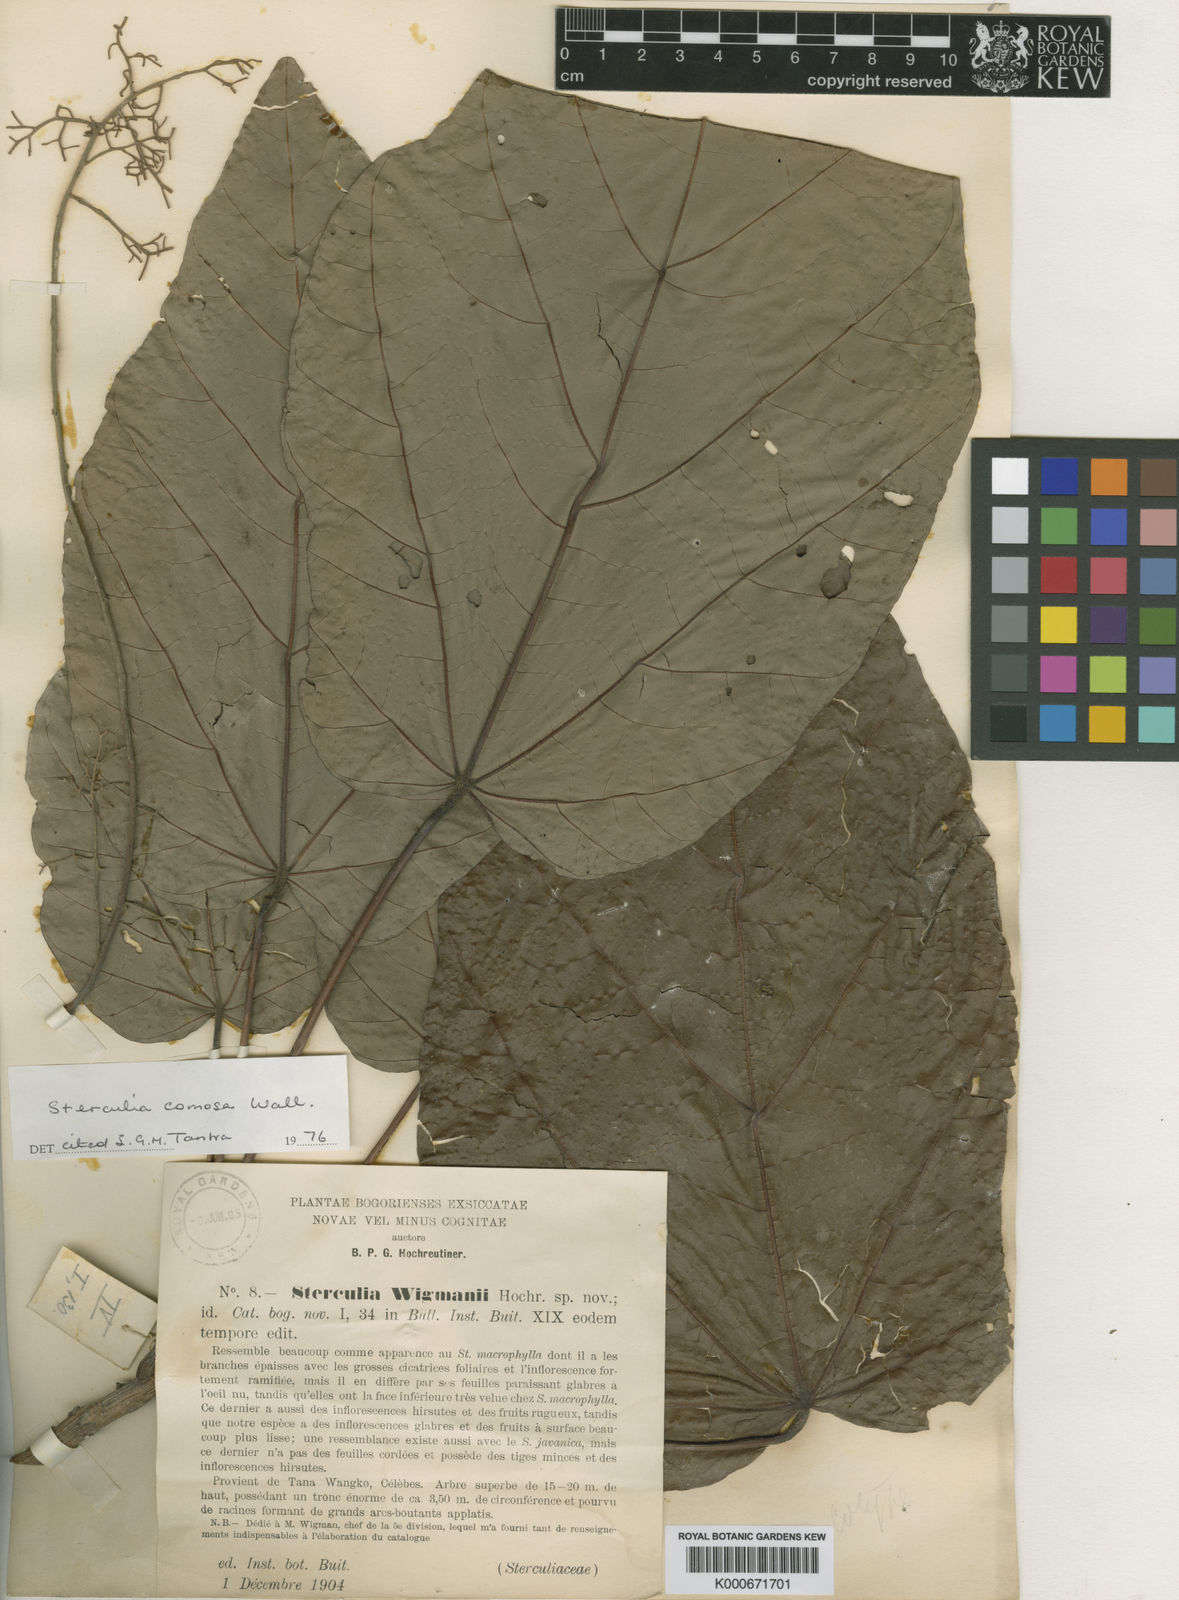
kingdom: Plantae
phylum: Tracheophyta
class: Magnoliopsida
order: Malvales
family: Malvaceae
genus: Sterculia
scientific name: Sterculia comosa
